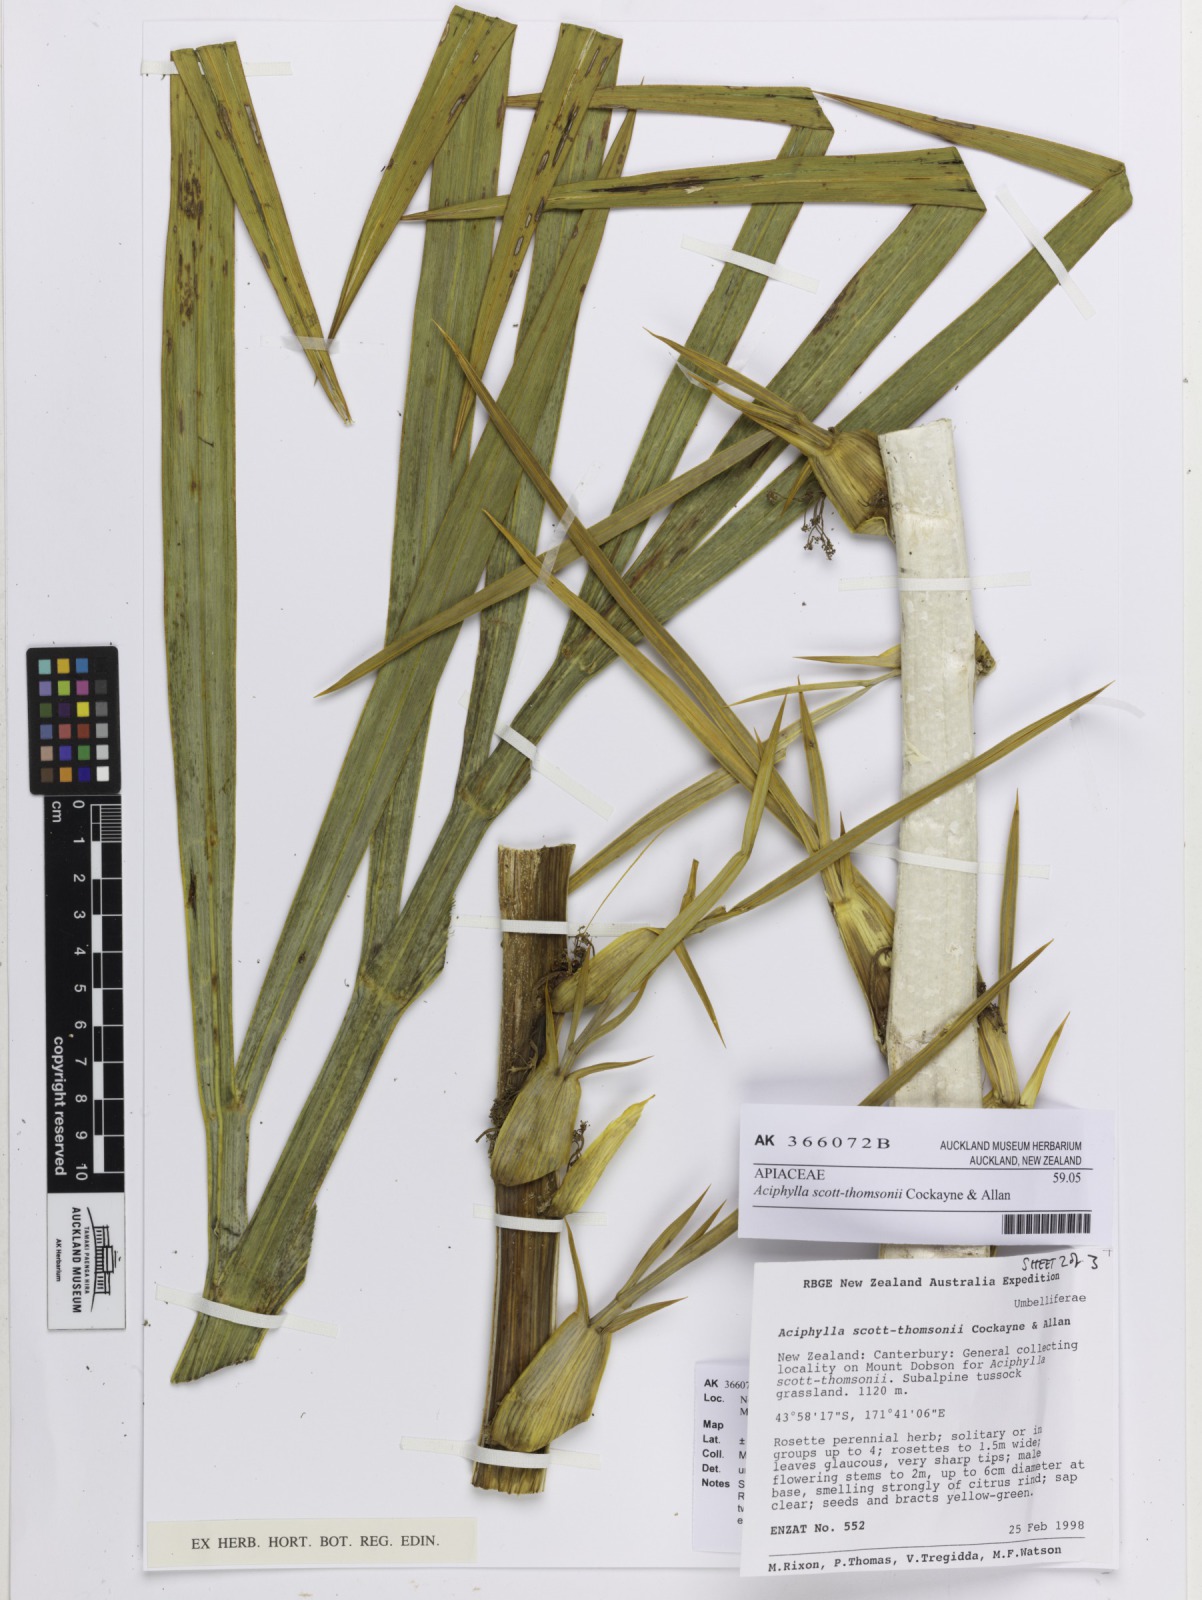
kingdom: Plantae
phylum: Tracheophyta
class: Magnoliopsida
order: Apiales
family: Apiaceae
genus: Aciphylla
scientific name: Aciphylla scott-thomsonii
